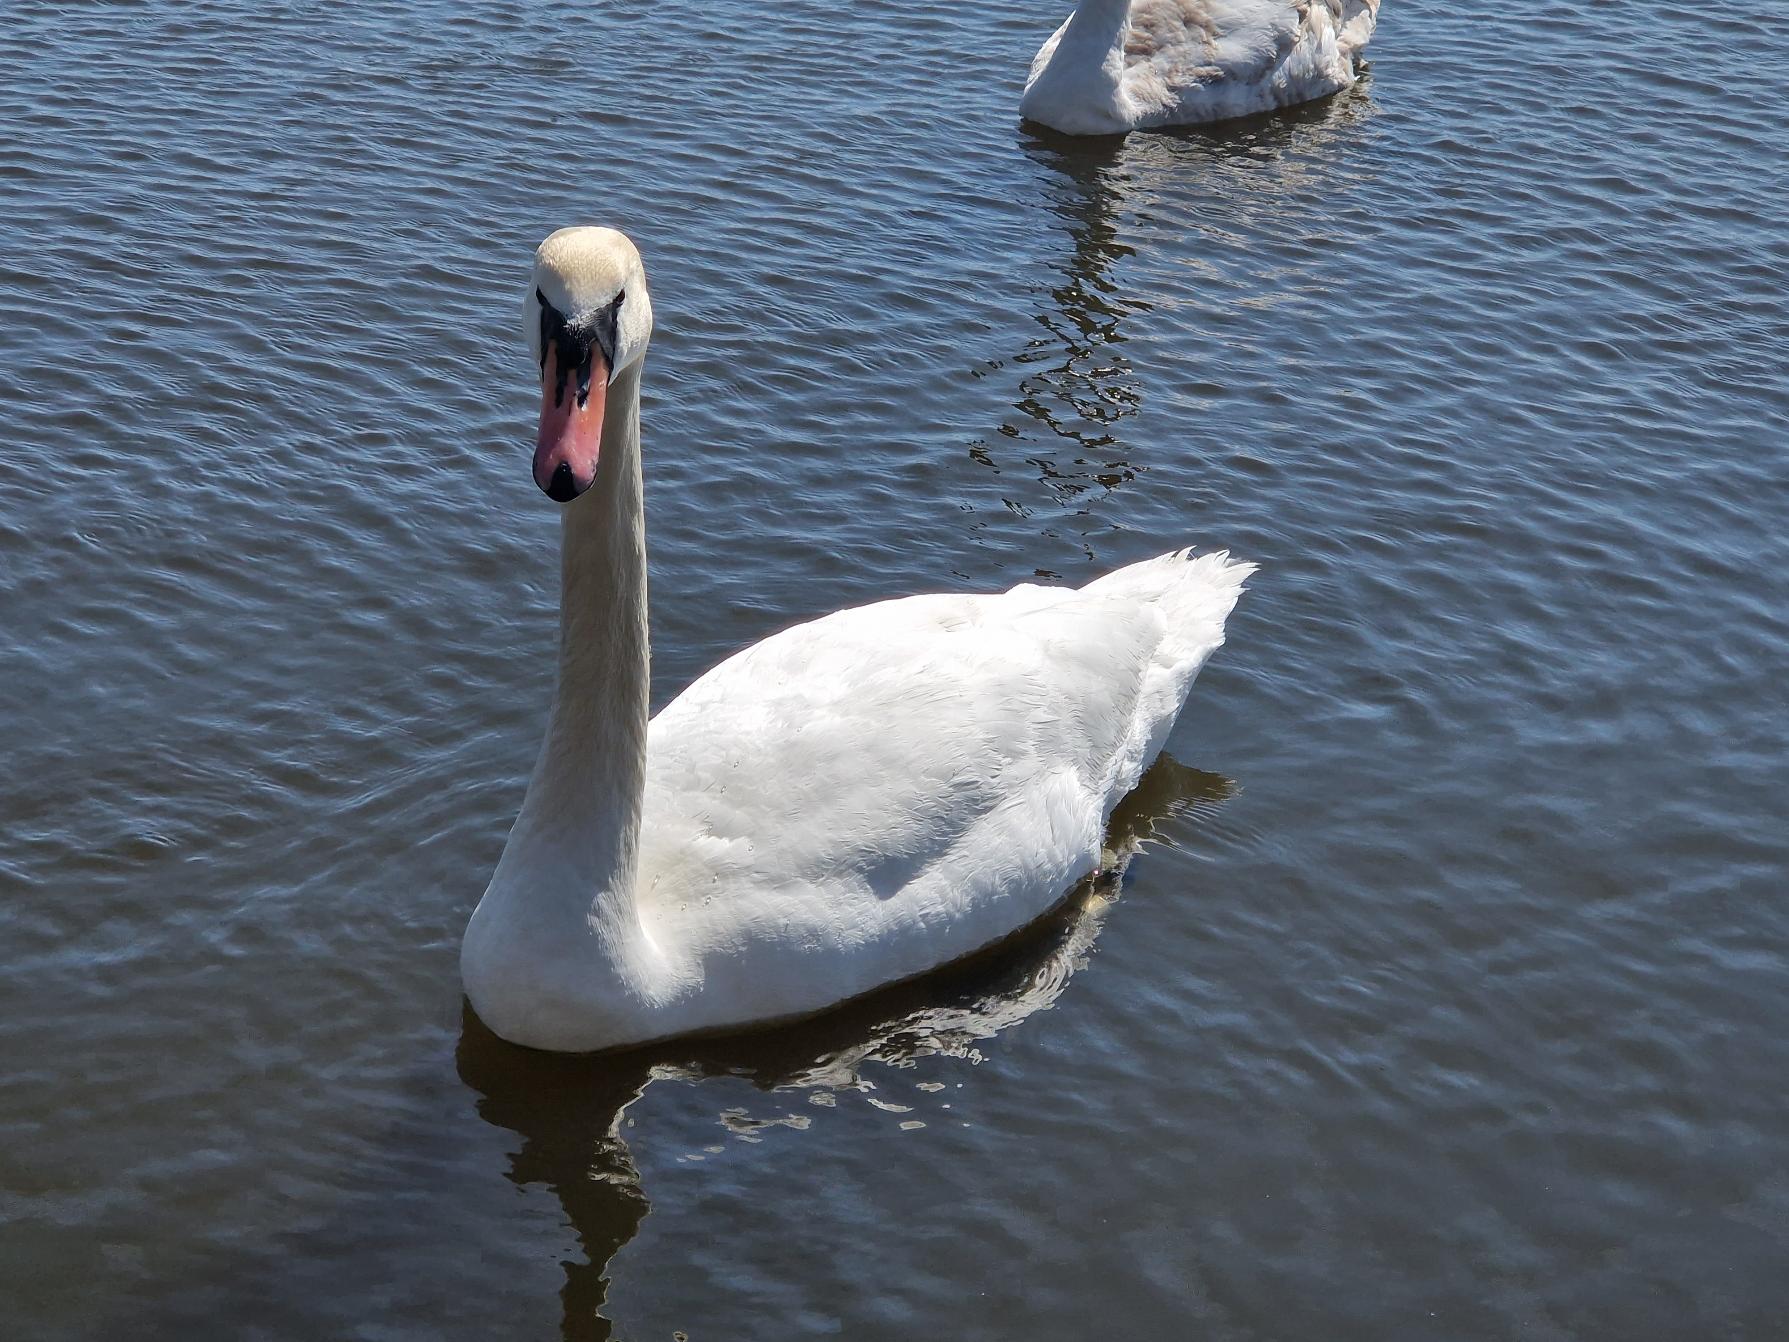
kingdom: Animalia
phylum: Chordata
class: Aves
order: Anseriformes
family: Anatidae
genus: Cygnus
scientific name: Cygnus olor
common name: Knopsvane
